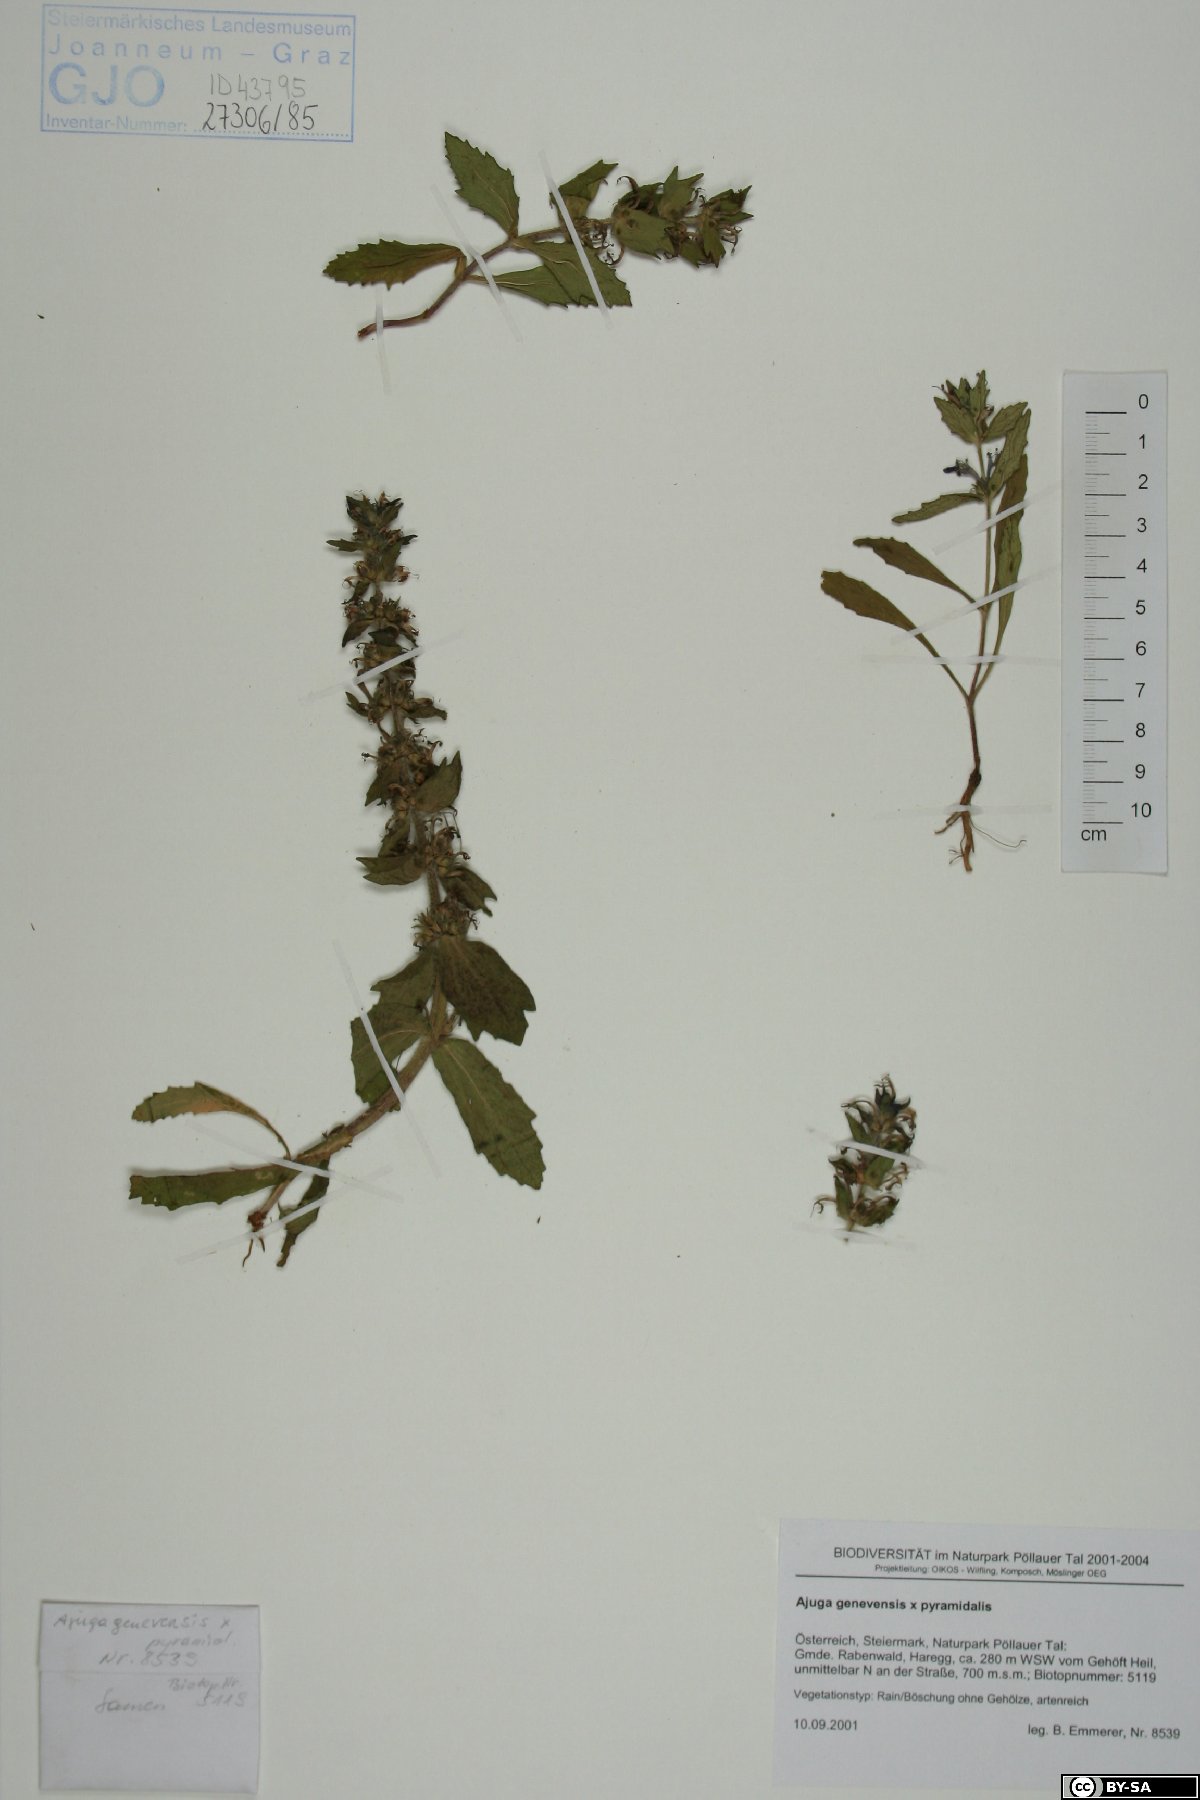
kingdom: Plantae
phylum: Tracheophyta
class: Magnoliopsida
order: Lamiales
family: Lamiaceae
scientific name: Lamiaceae
